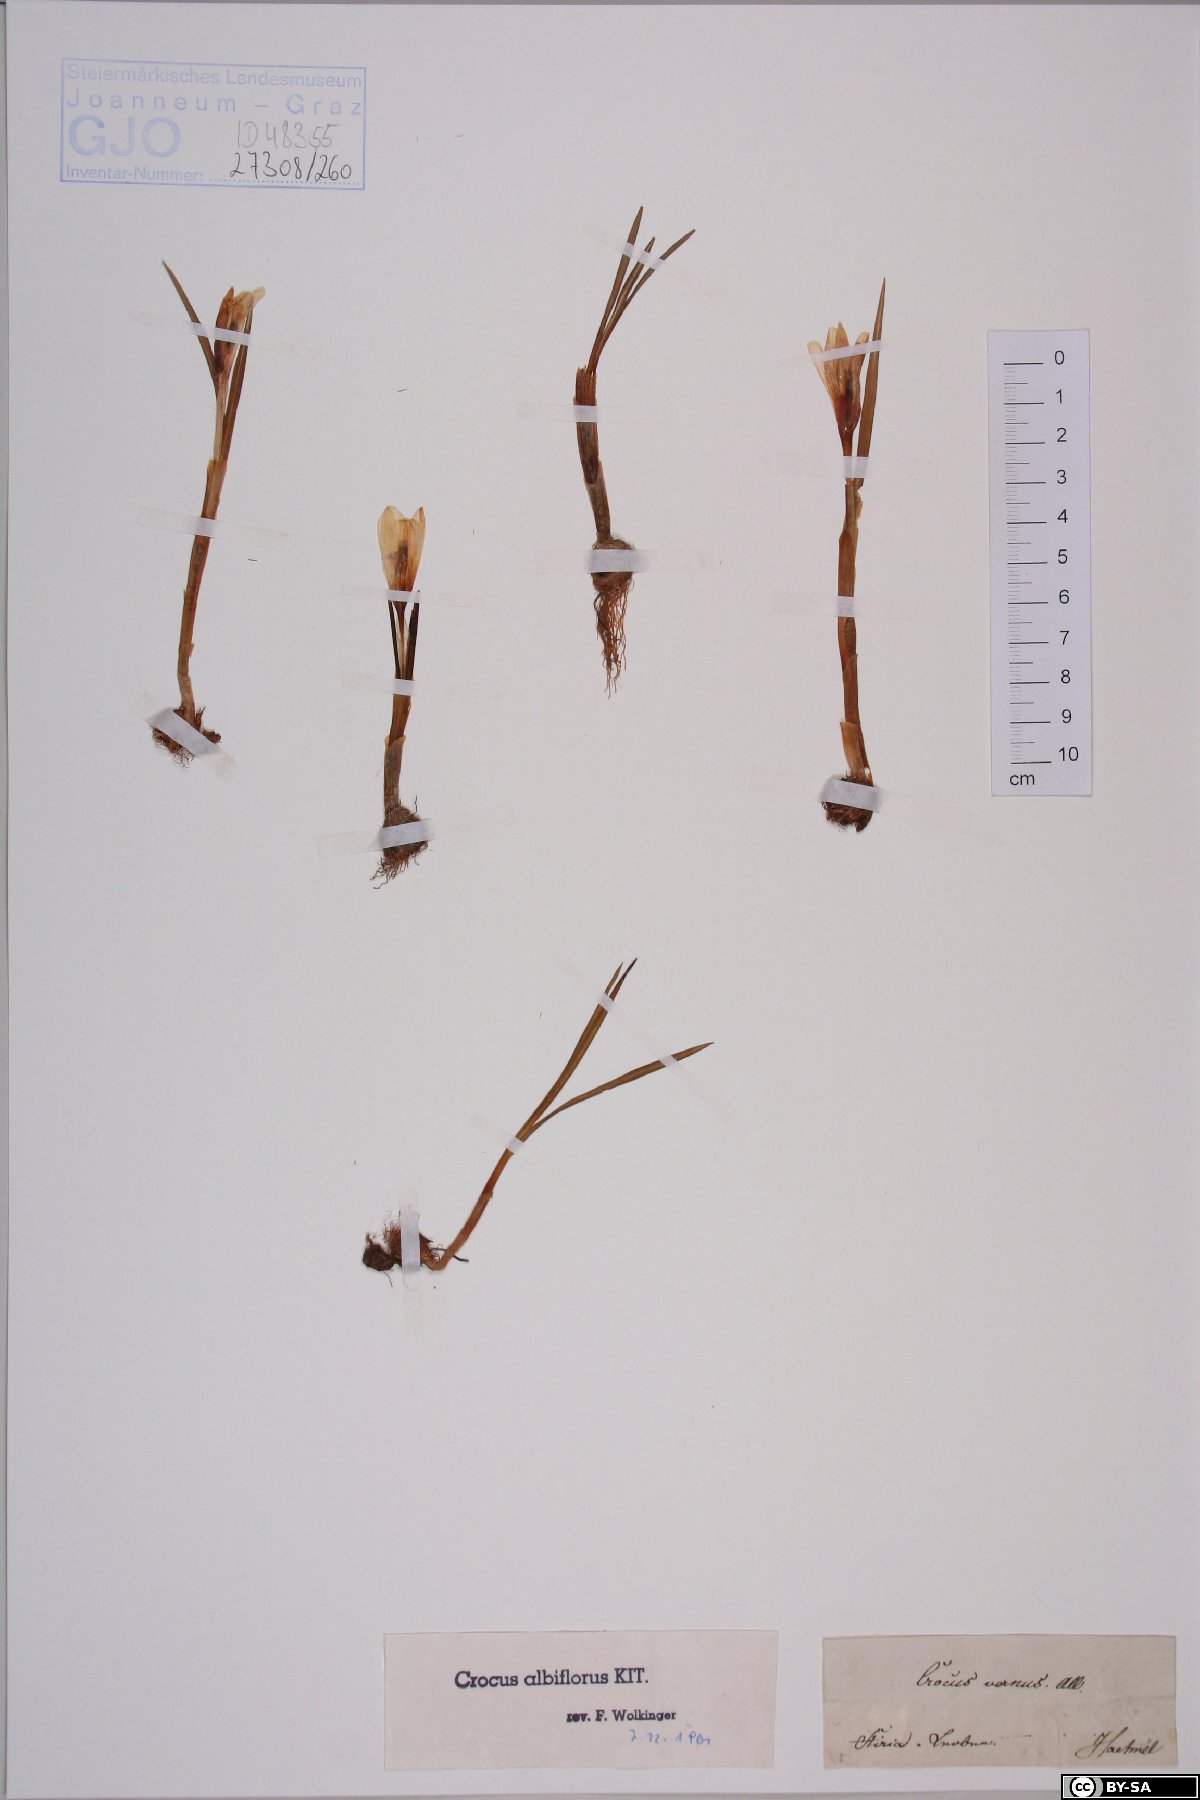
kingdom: Plantae
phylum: Tracheophyta
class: Liliopsida
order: Asparagales
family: Iridaceae
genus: Crocus
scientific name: Crocus vernus
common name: Spring crocus
